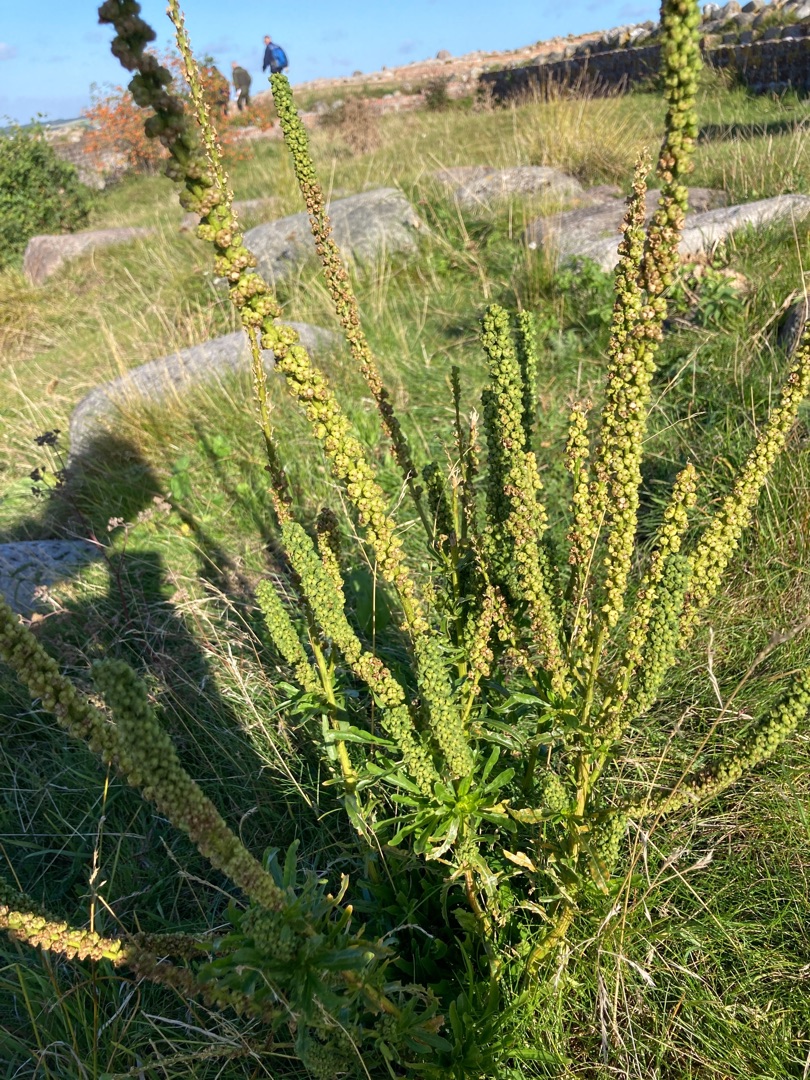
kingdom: Plantae
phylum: Tracheophyta
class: Magnoliopsida
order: Brassicales
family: Resedaceae
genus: Reseda
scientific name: Reseda luteola
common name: Farve-reseda
